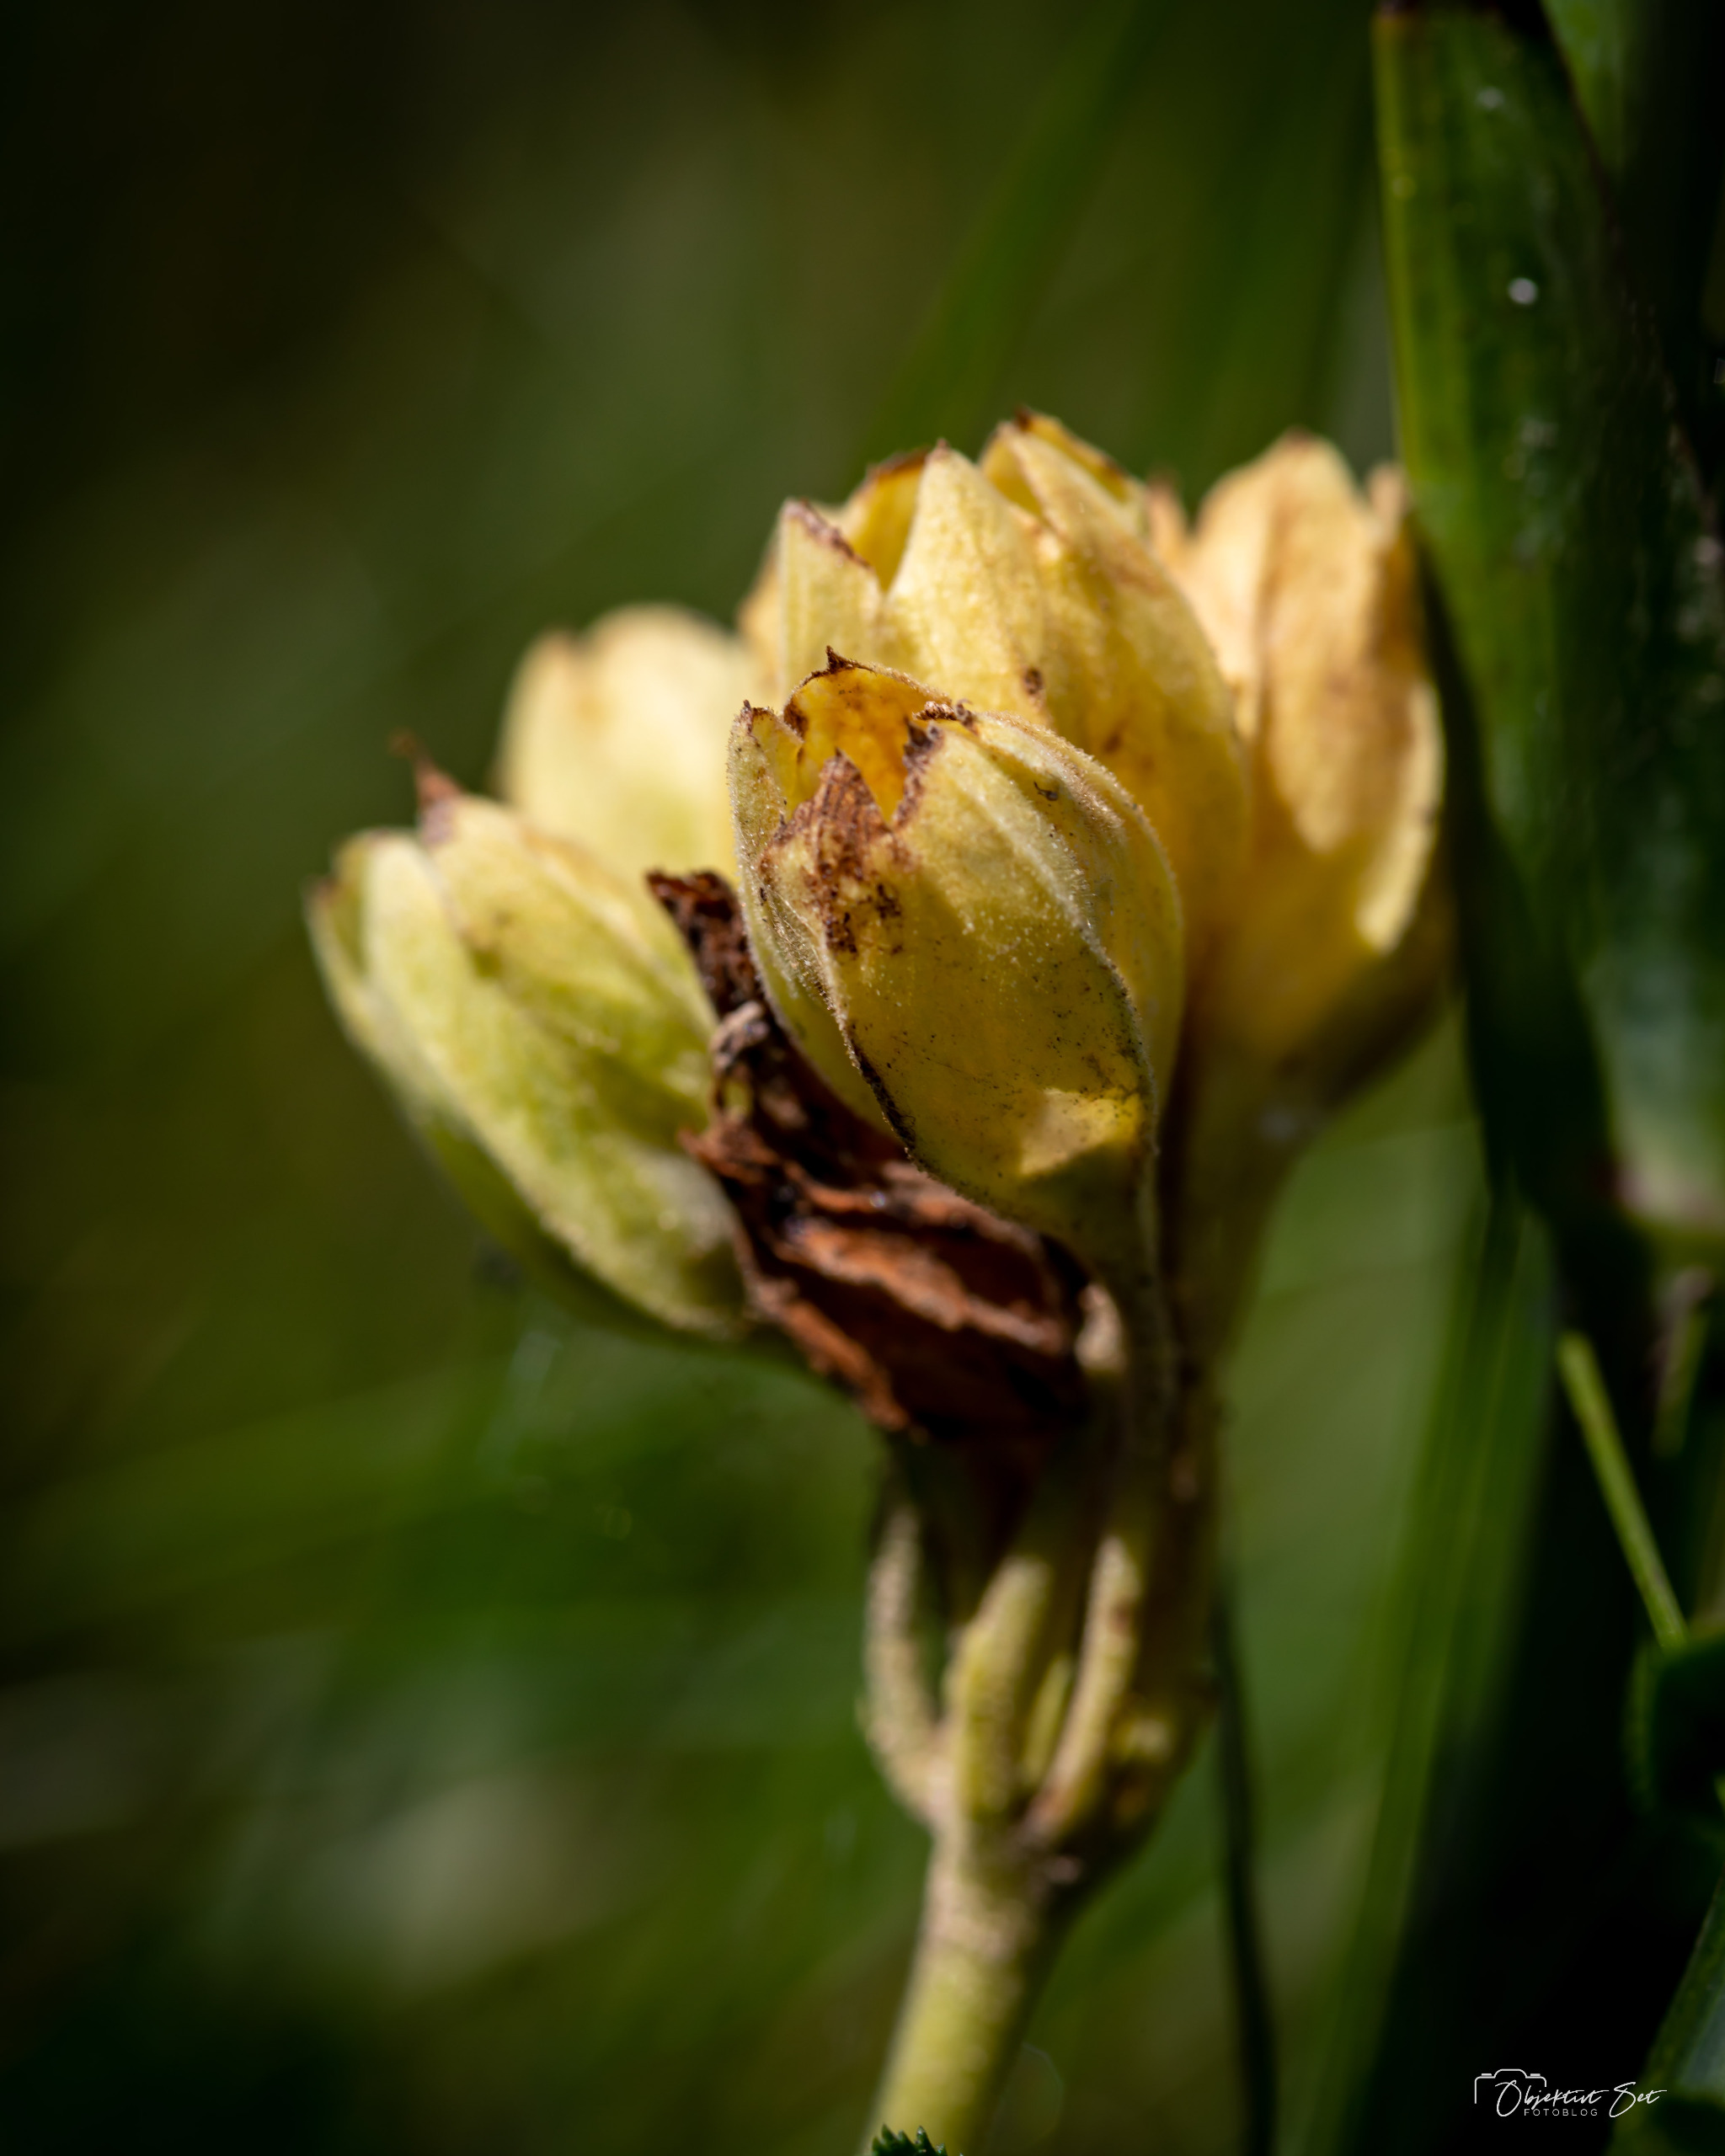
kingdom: Plantae
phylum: Tracheophyta
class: Magnoliopsida
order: Ericales
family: Primulaceae
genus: Primula
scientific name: Primula veris
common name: Hulkravet kodriver
